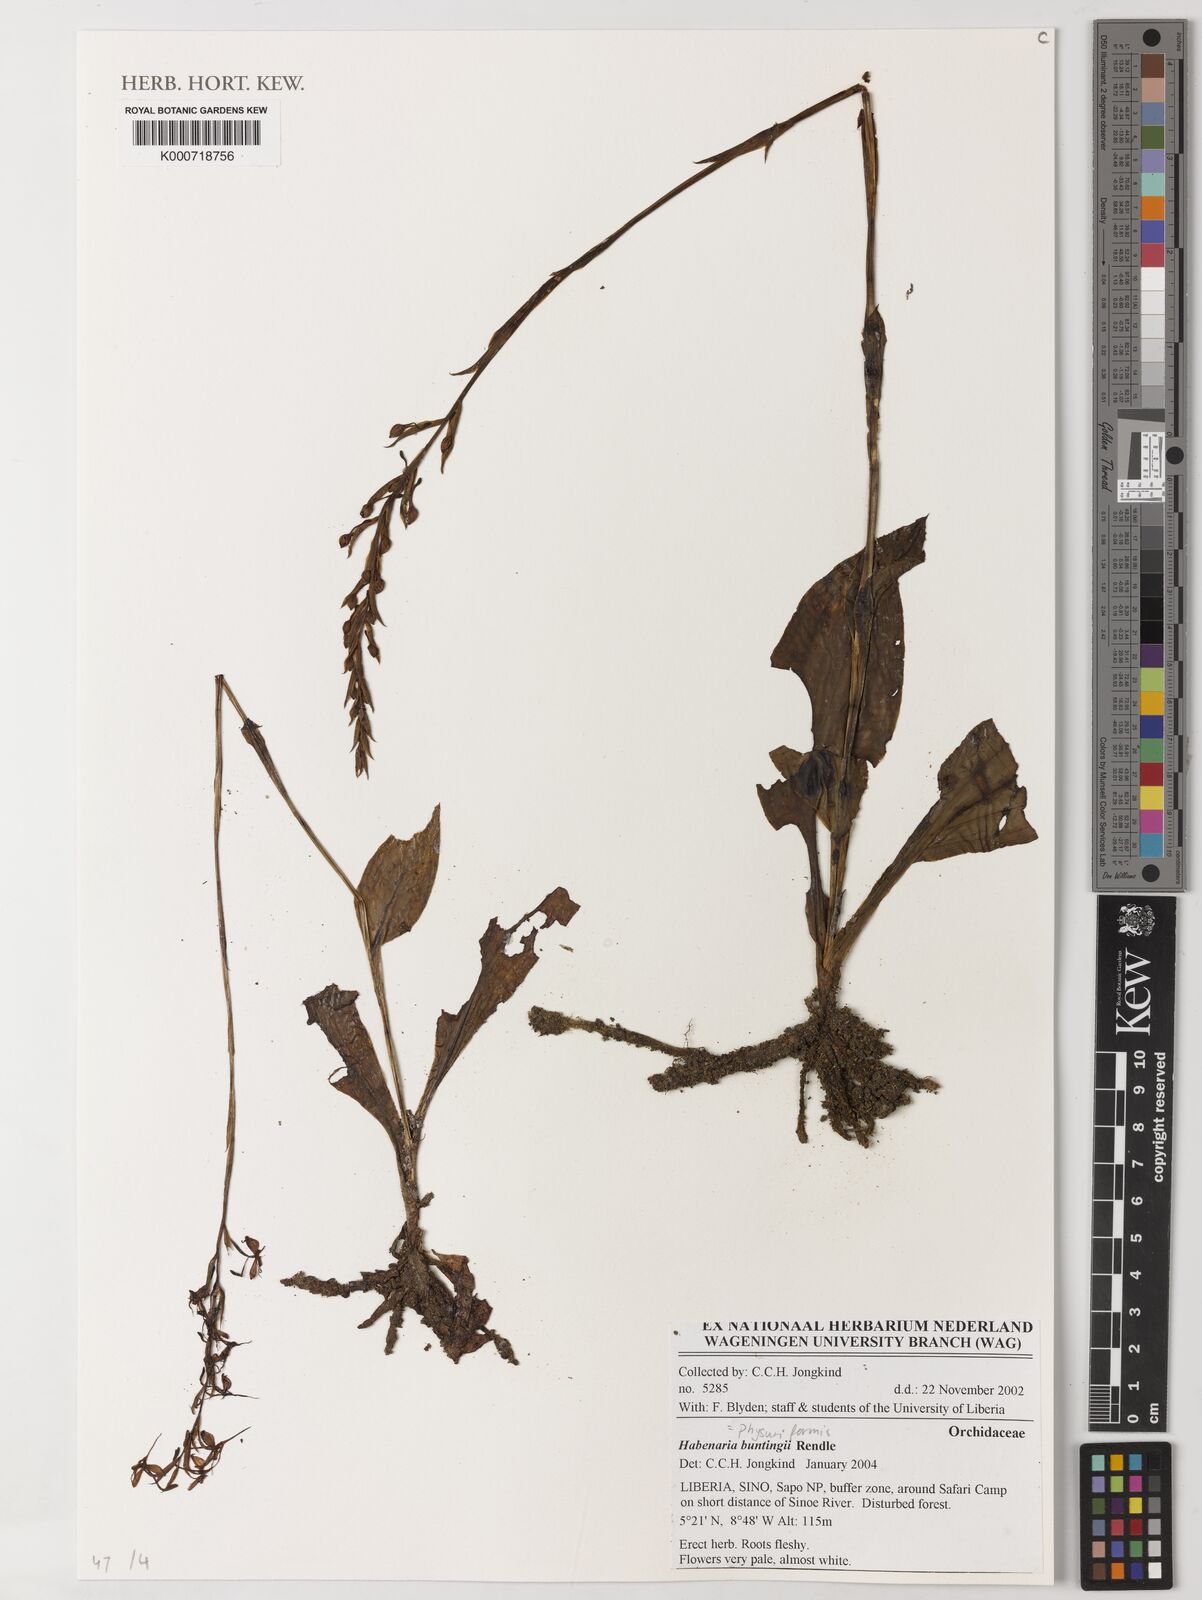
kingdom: Plantae
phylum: Tracheophyta
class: Liliopsida
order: Asparagales
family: Orchidaceae
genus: Habenaria
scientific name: Habenaria physuriformis
